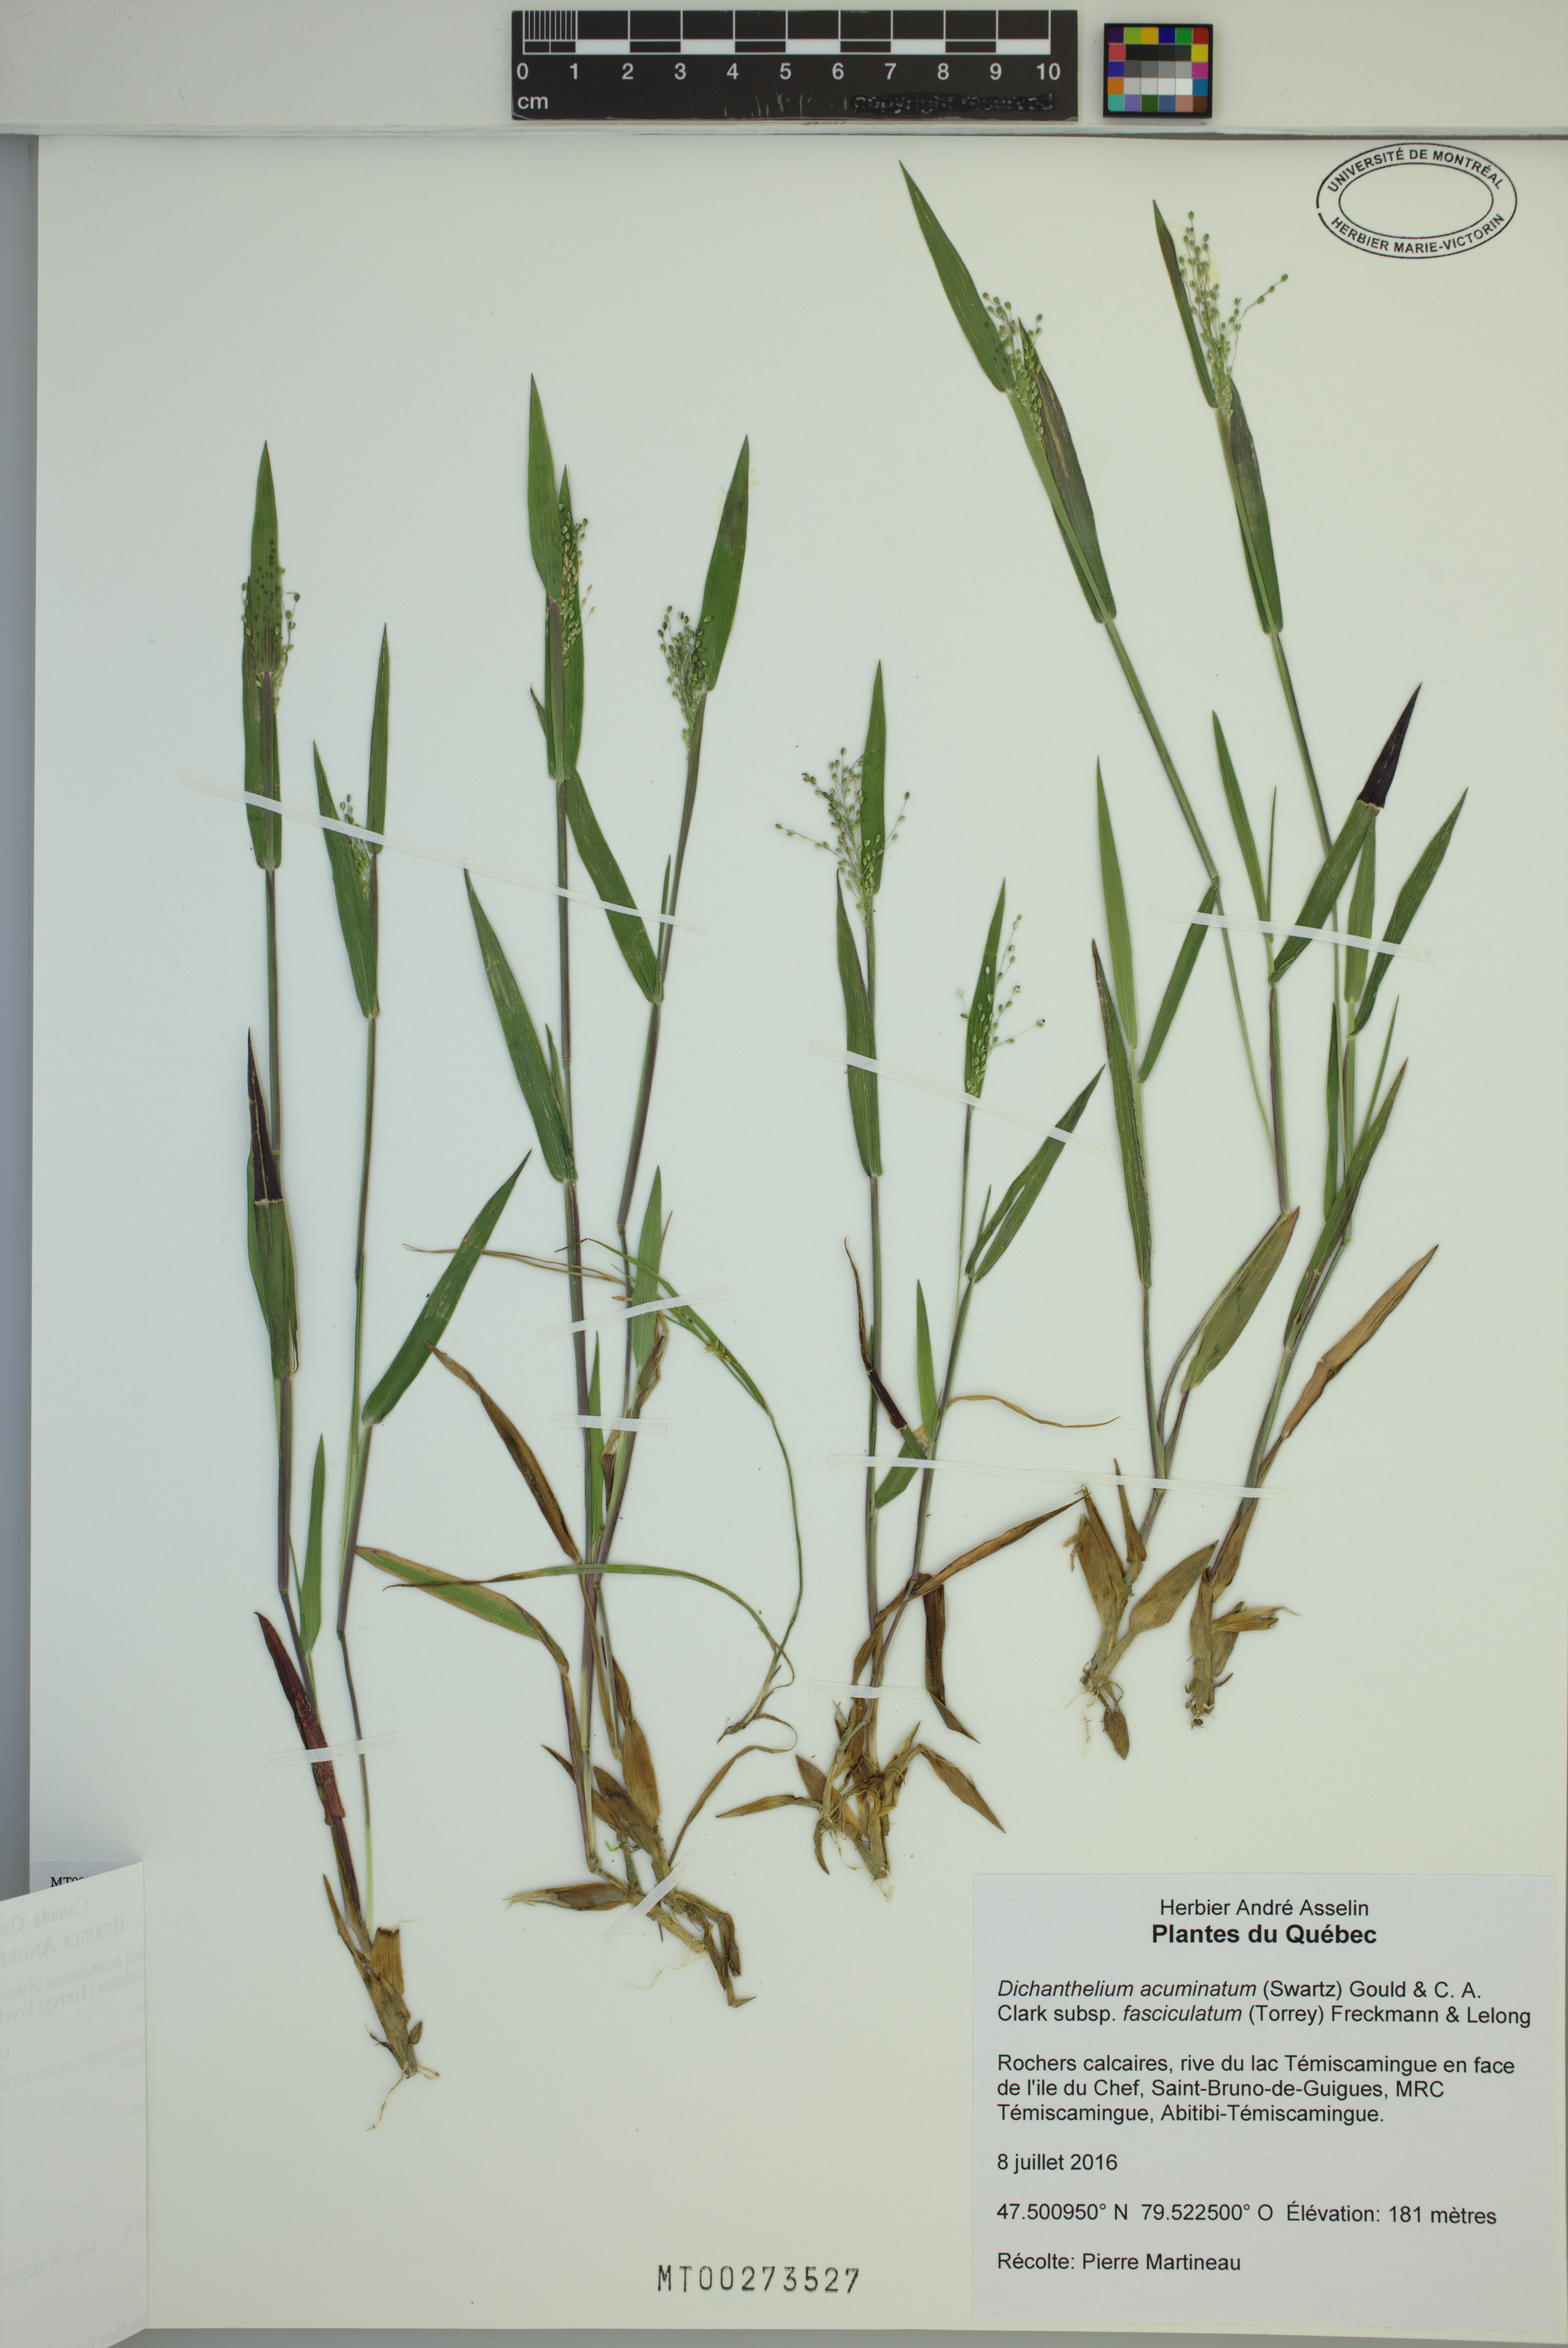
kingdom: Plantae
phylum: Tracheophyta
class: Liliopsida
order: Poales
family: Poaceae
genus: Dichanthelium
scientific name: Dichanthelium lanuginosum
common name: Woolly panicgrass
